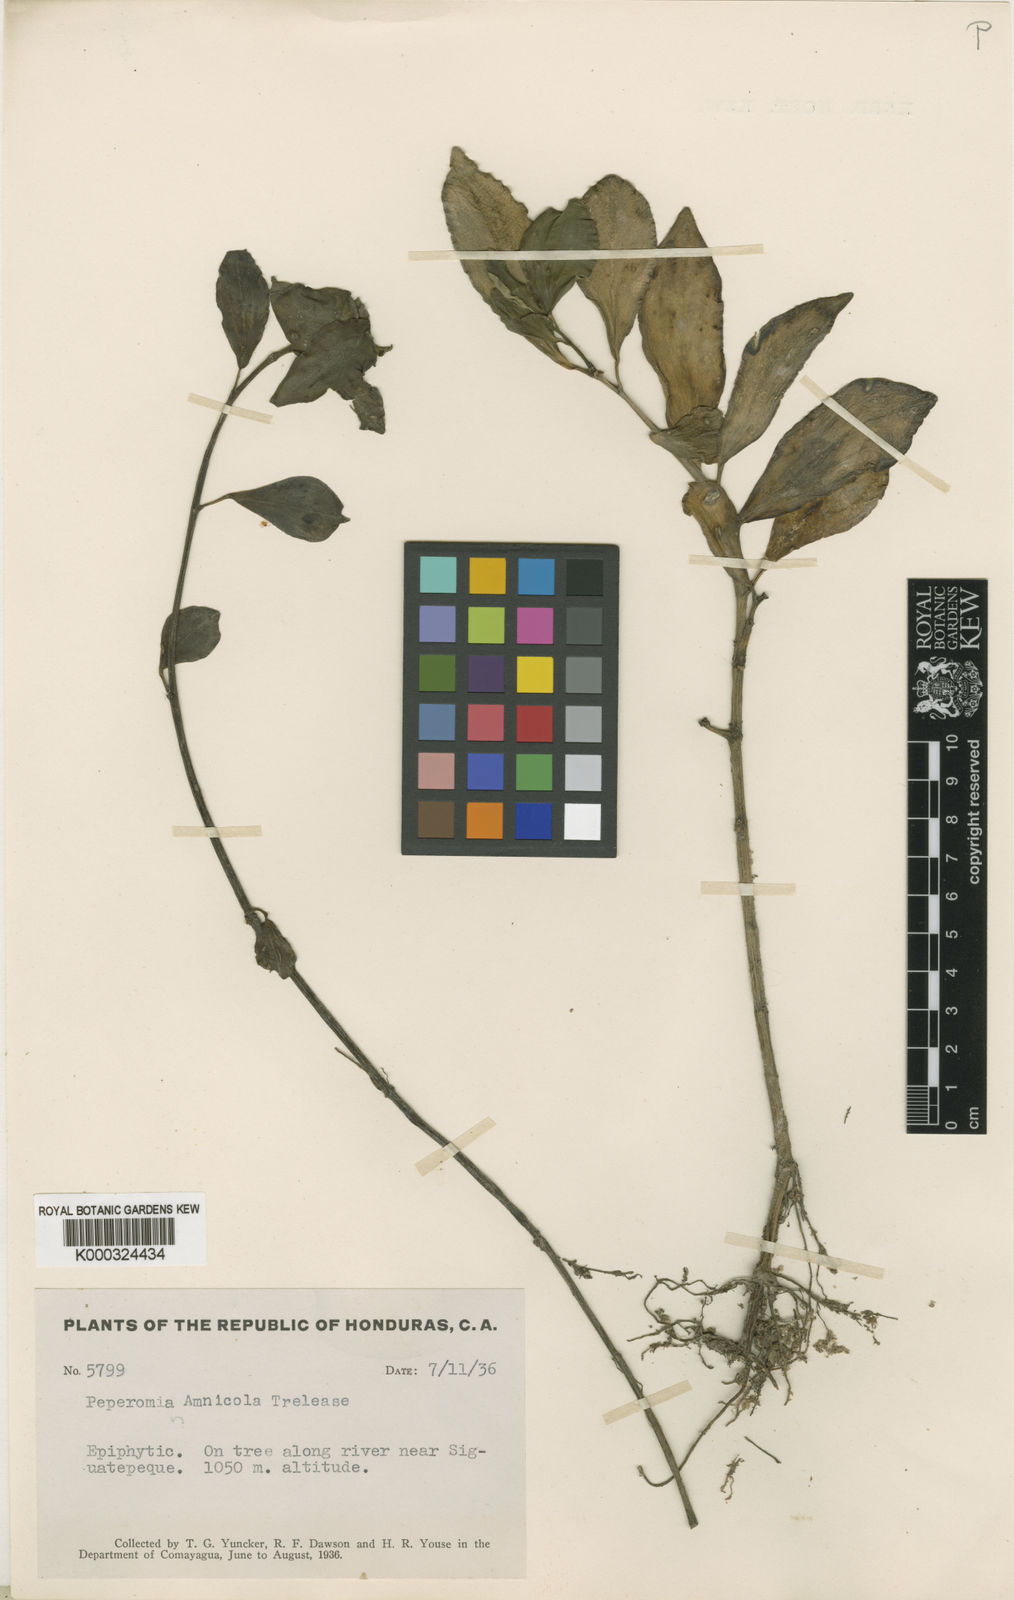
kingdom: Plantae
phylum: Tracheophyta
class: Magnoliopsida
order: Piperales
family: Piperaceae
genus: Peperomia
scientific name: Peperomia san-joseana
